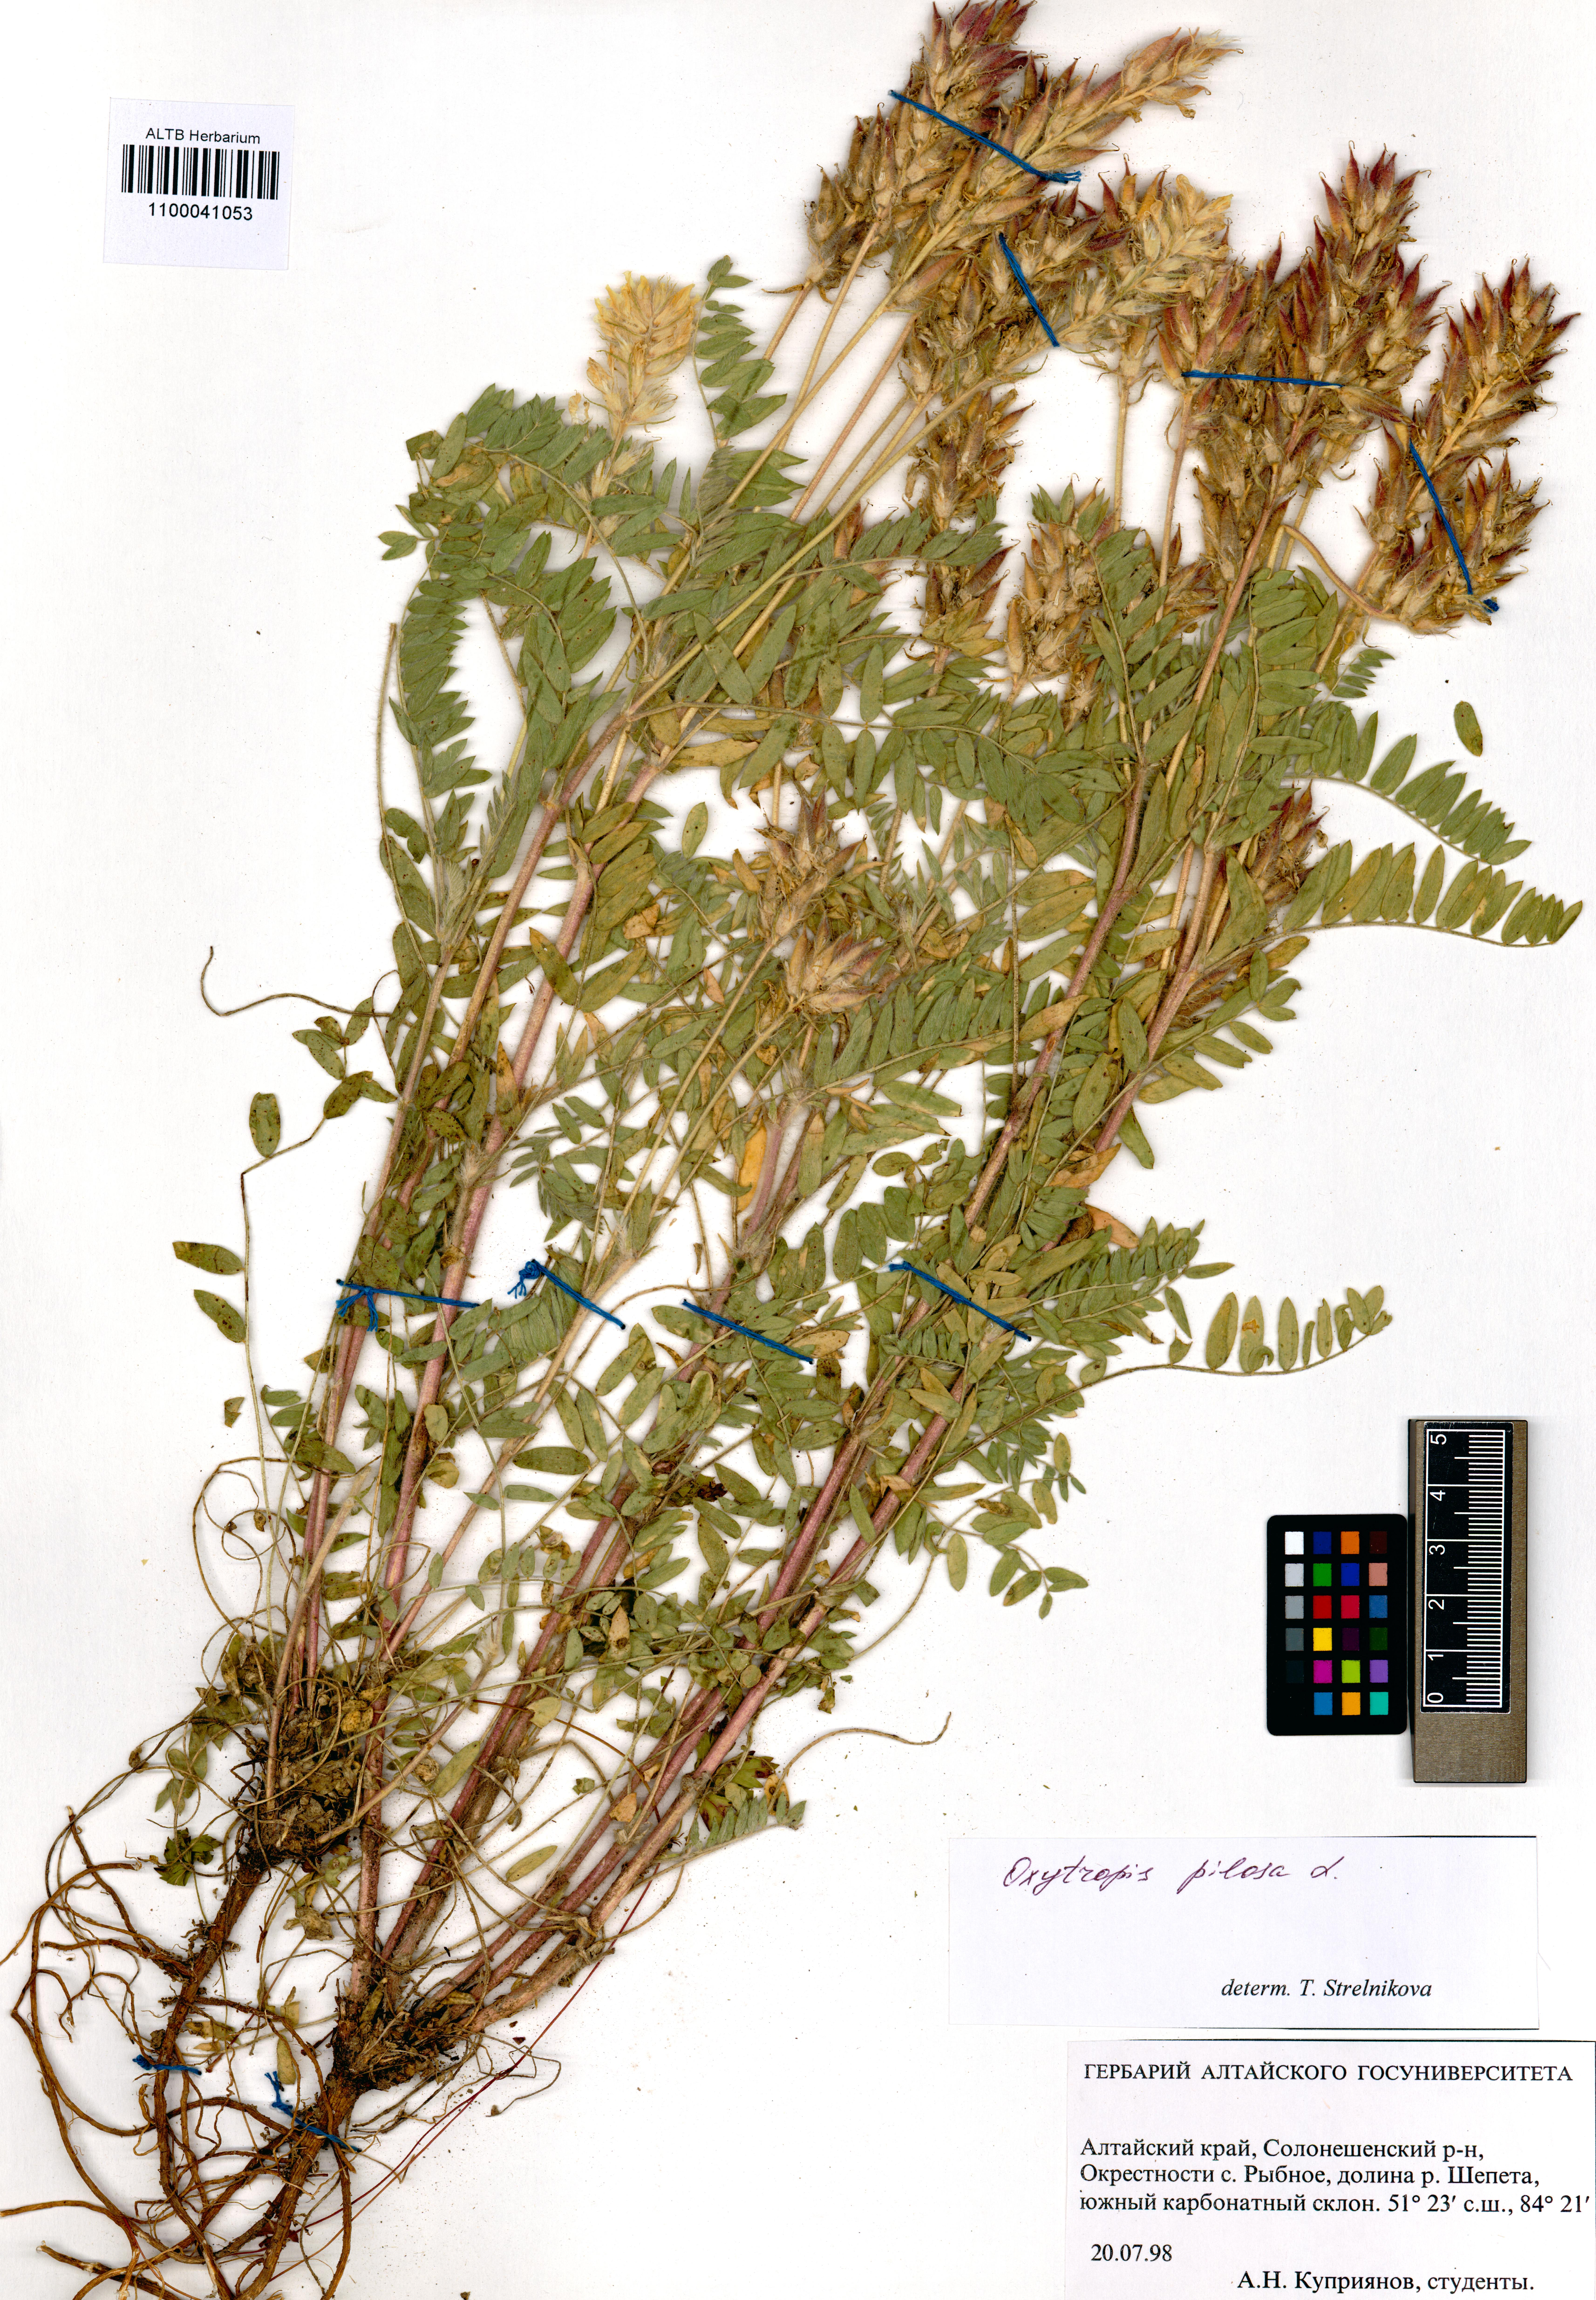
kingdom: Plantae
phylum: Tracheophyta
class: Magnoliopsida
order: Fabales
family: Fabaceae
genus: Oxytropis
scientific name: Oxytropis pilosa
